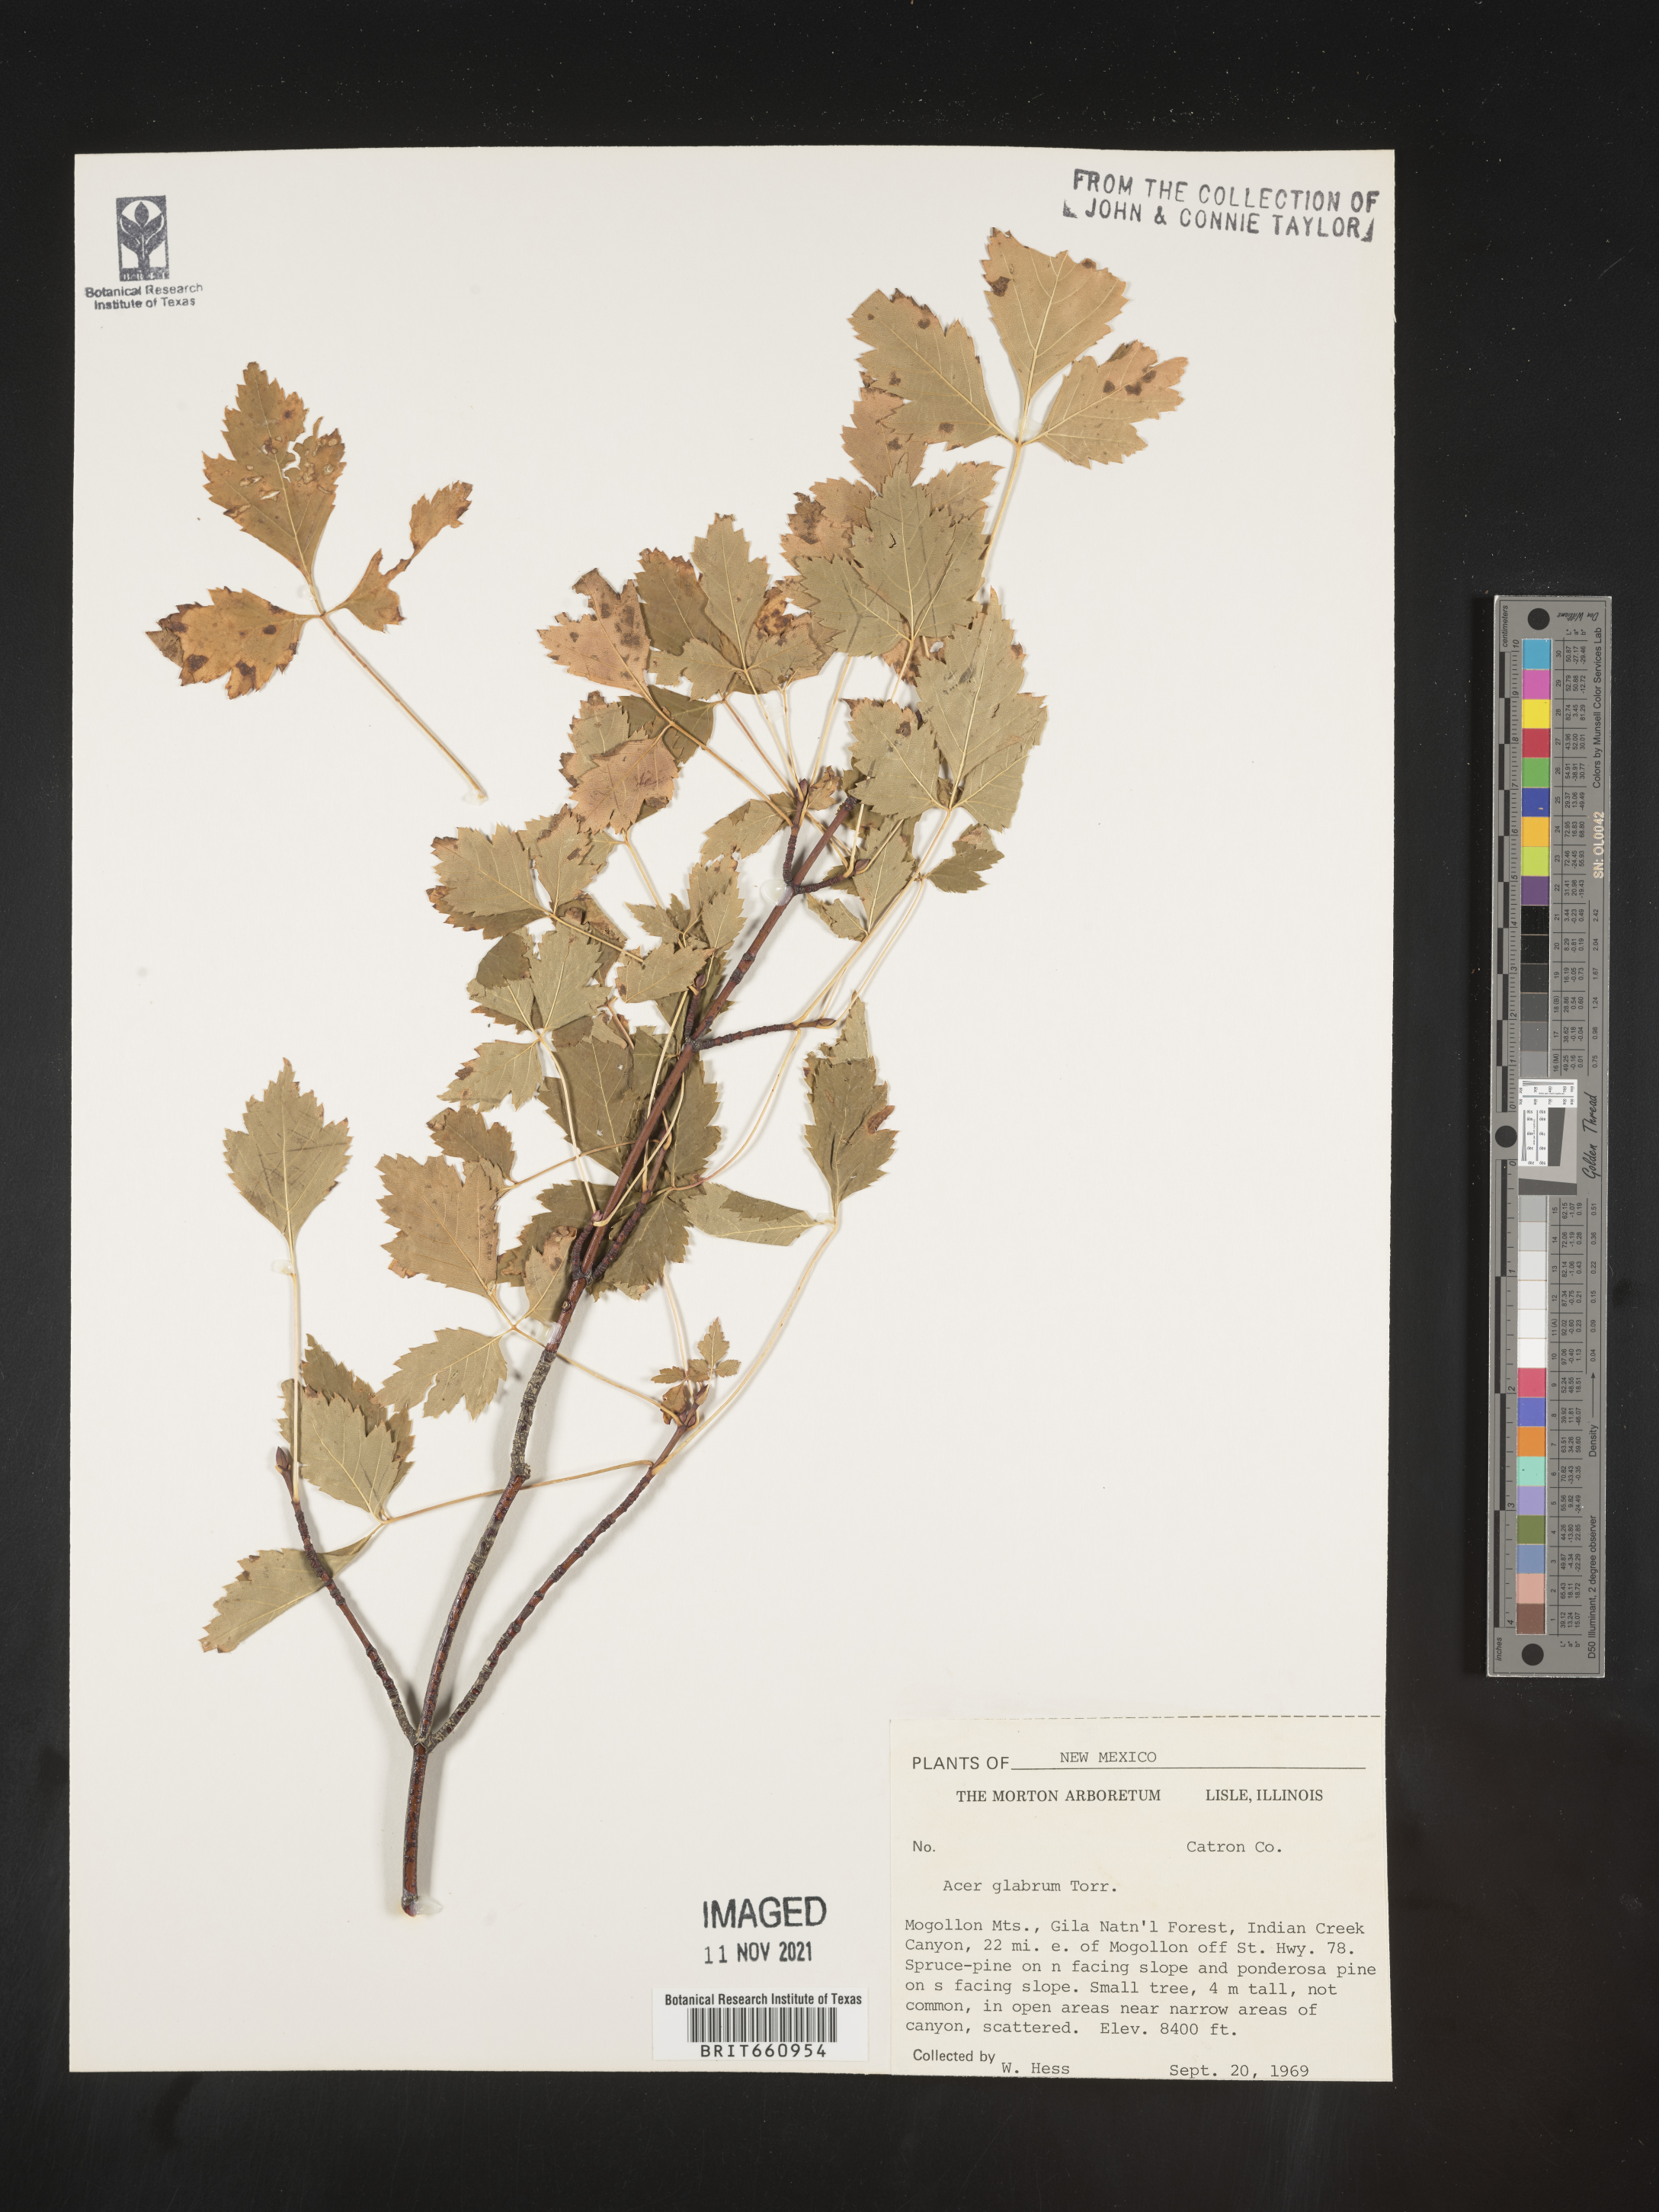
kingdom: Plantae
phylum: Tracheophyta
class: Magnoliopsida
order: Sapindales
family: Sapindaceae
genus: Acer
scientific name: Acer glabrum
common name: Rocky mountain maple
